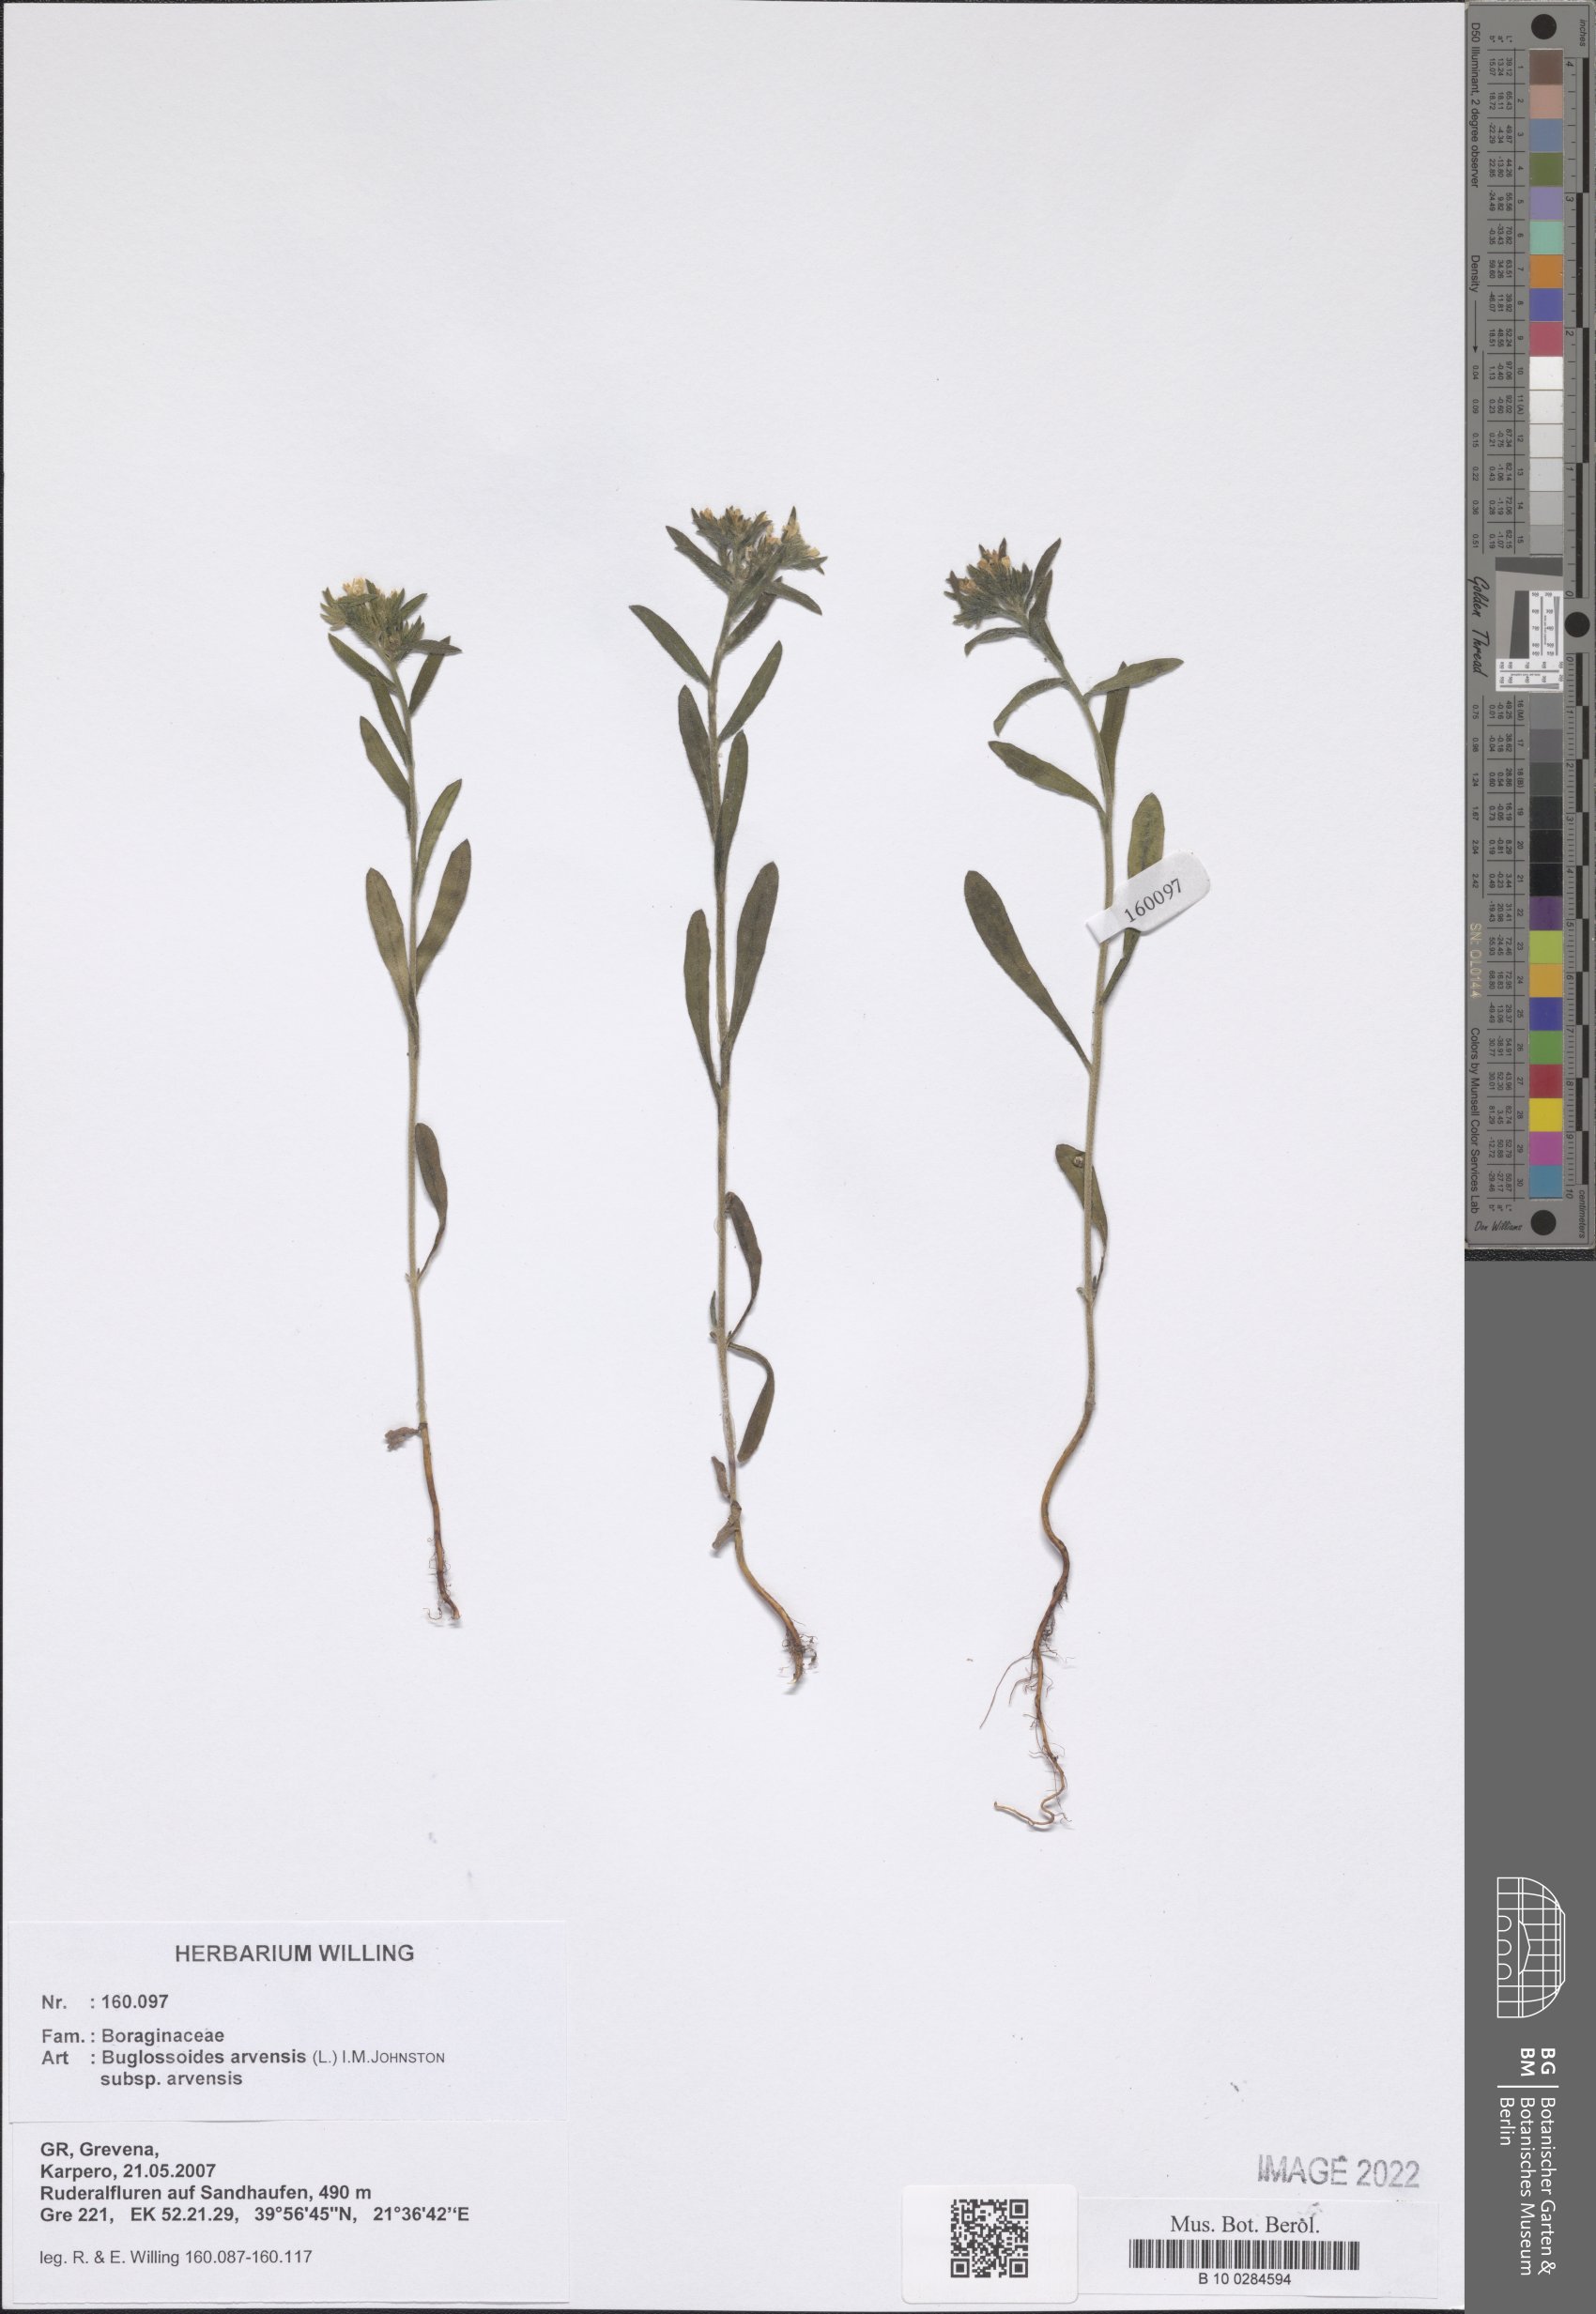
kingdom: Plantae
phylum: Tracheophyta
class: Magnoliopsida
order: Boraginales
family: Boraginaceae
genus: Buglossoides
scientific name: Buglossoides arvensis
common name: Corn gromwell
